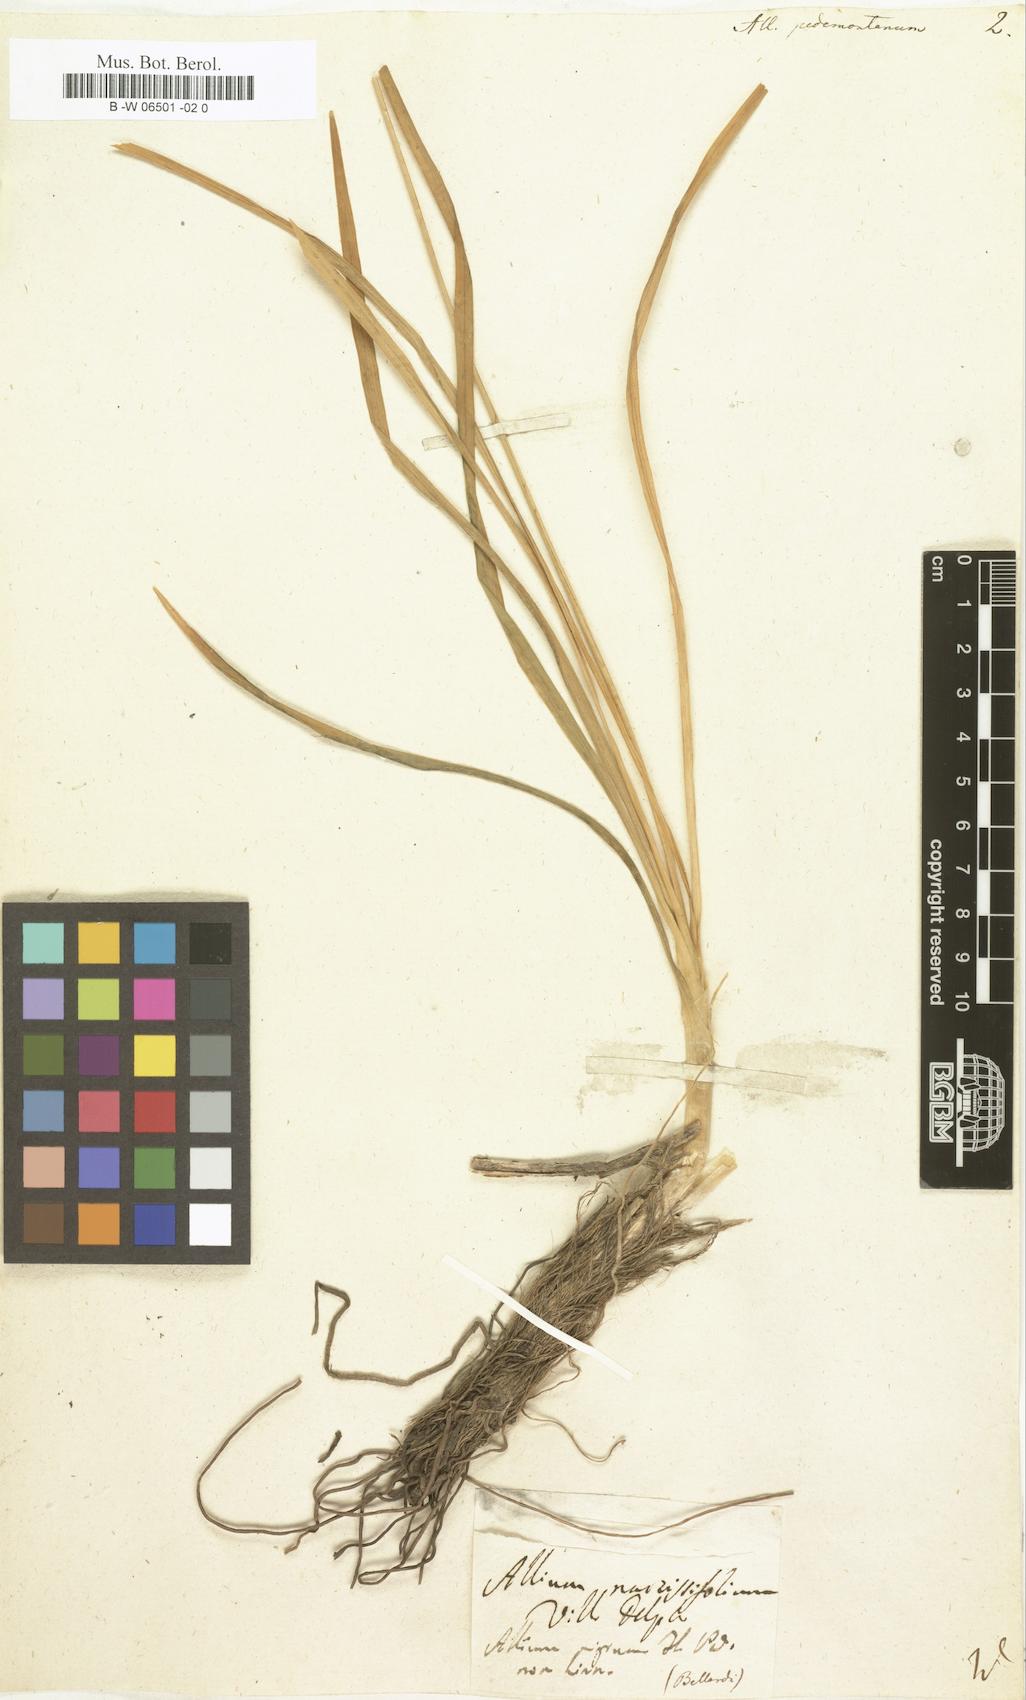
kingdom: Plantae
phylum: Tracheophyta
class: Liliopsida
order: Asparagales
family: Amaryllidaceae
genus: Allium
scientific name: Allium narcissiflorum
